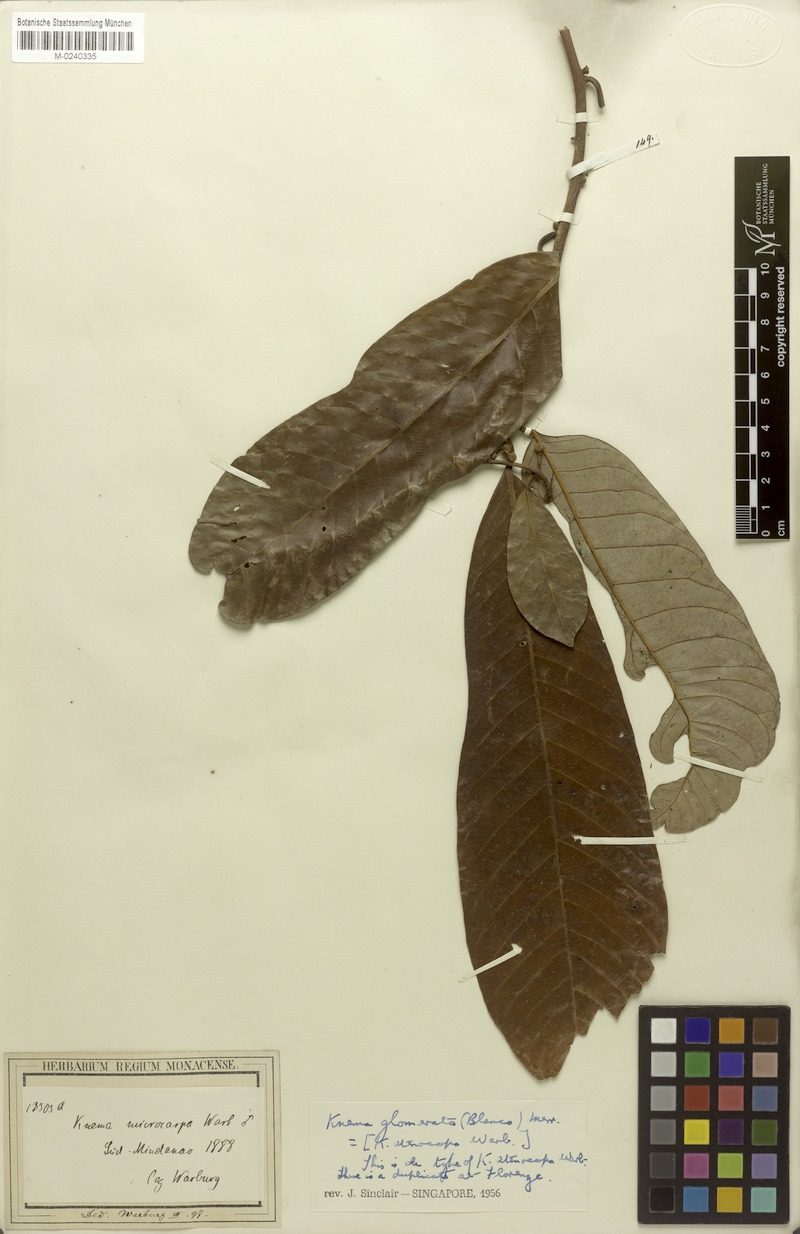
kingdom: Plantae
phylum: Tracheophyta
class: Magnoliopsida
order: Magnoliales
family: Myristicaceae
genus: Knema
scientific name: Knema glomerata
